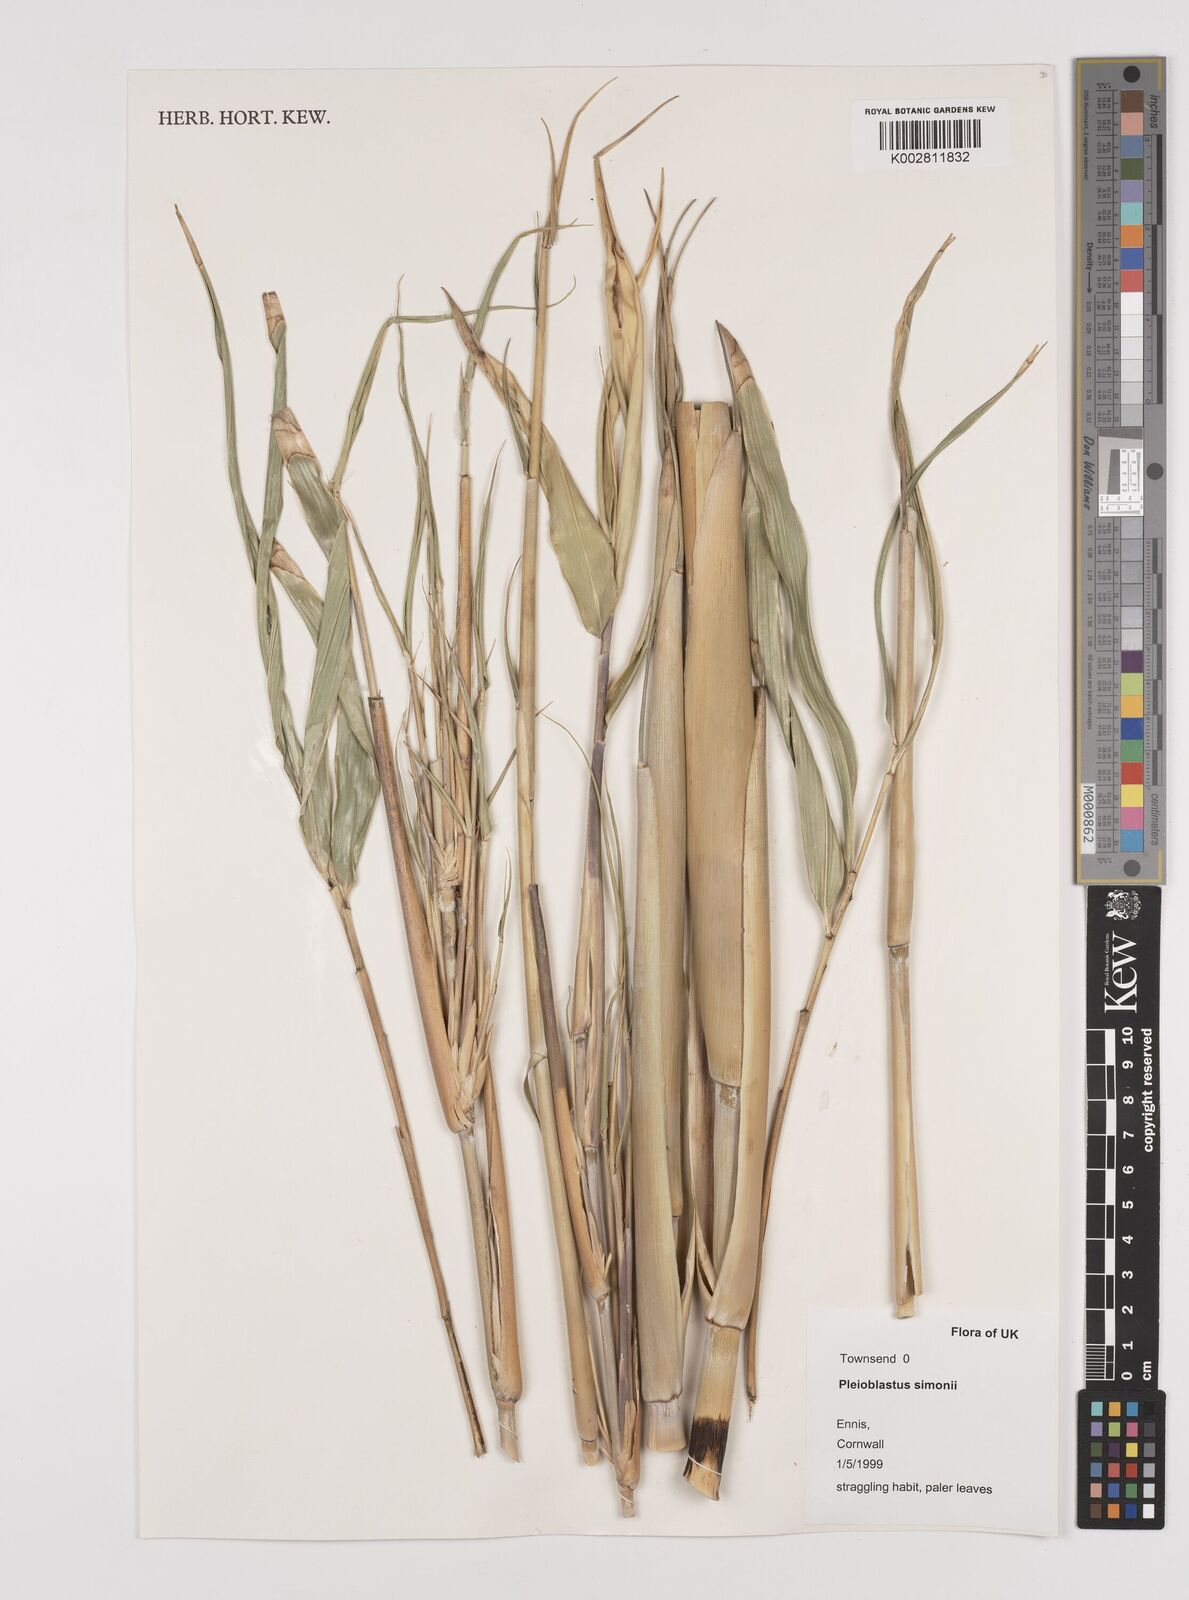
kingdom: Plantae
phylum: Tracheophyta
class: Liliopsida
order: Poales
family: Poaceae
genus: Pleioblastus
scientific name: Pleioblastus simonii
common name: Simon bamboo
